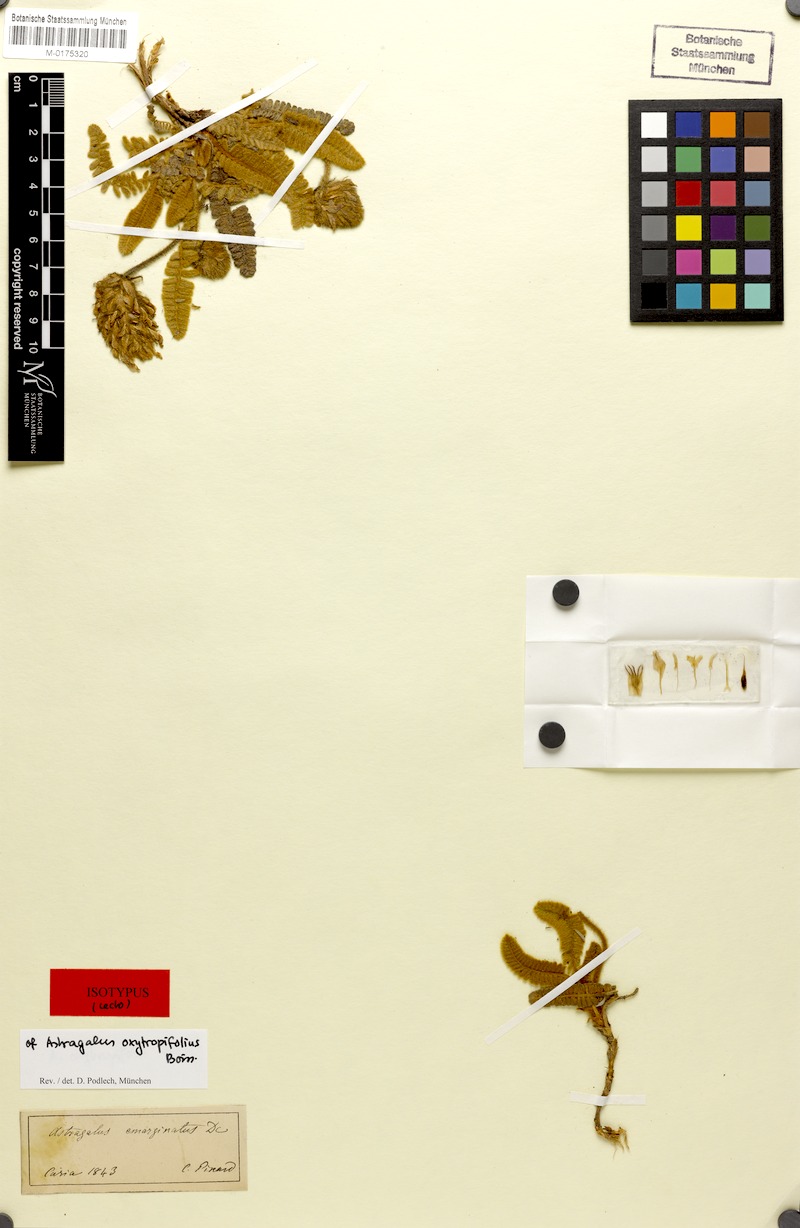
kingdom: Plantae
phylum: Tracheophyta
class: Magnoliopsida
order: Fabales
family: Fabaceae
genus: Astragalus
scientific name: Astragalus oxytropifolius
